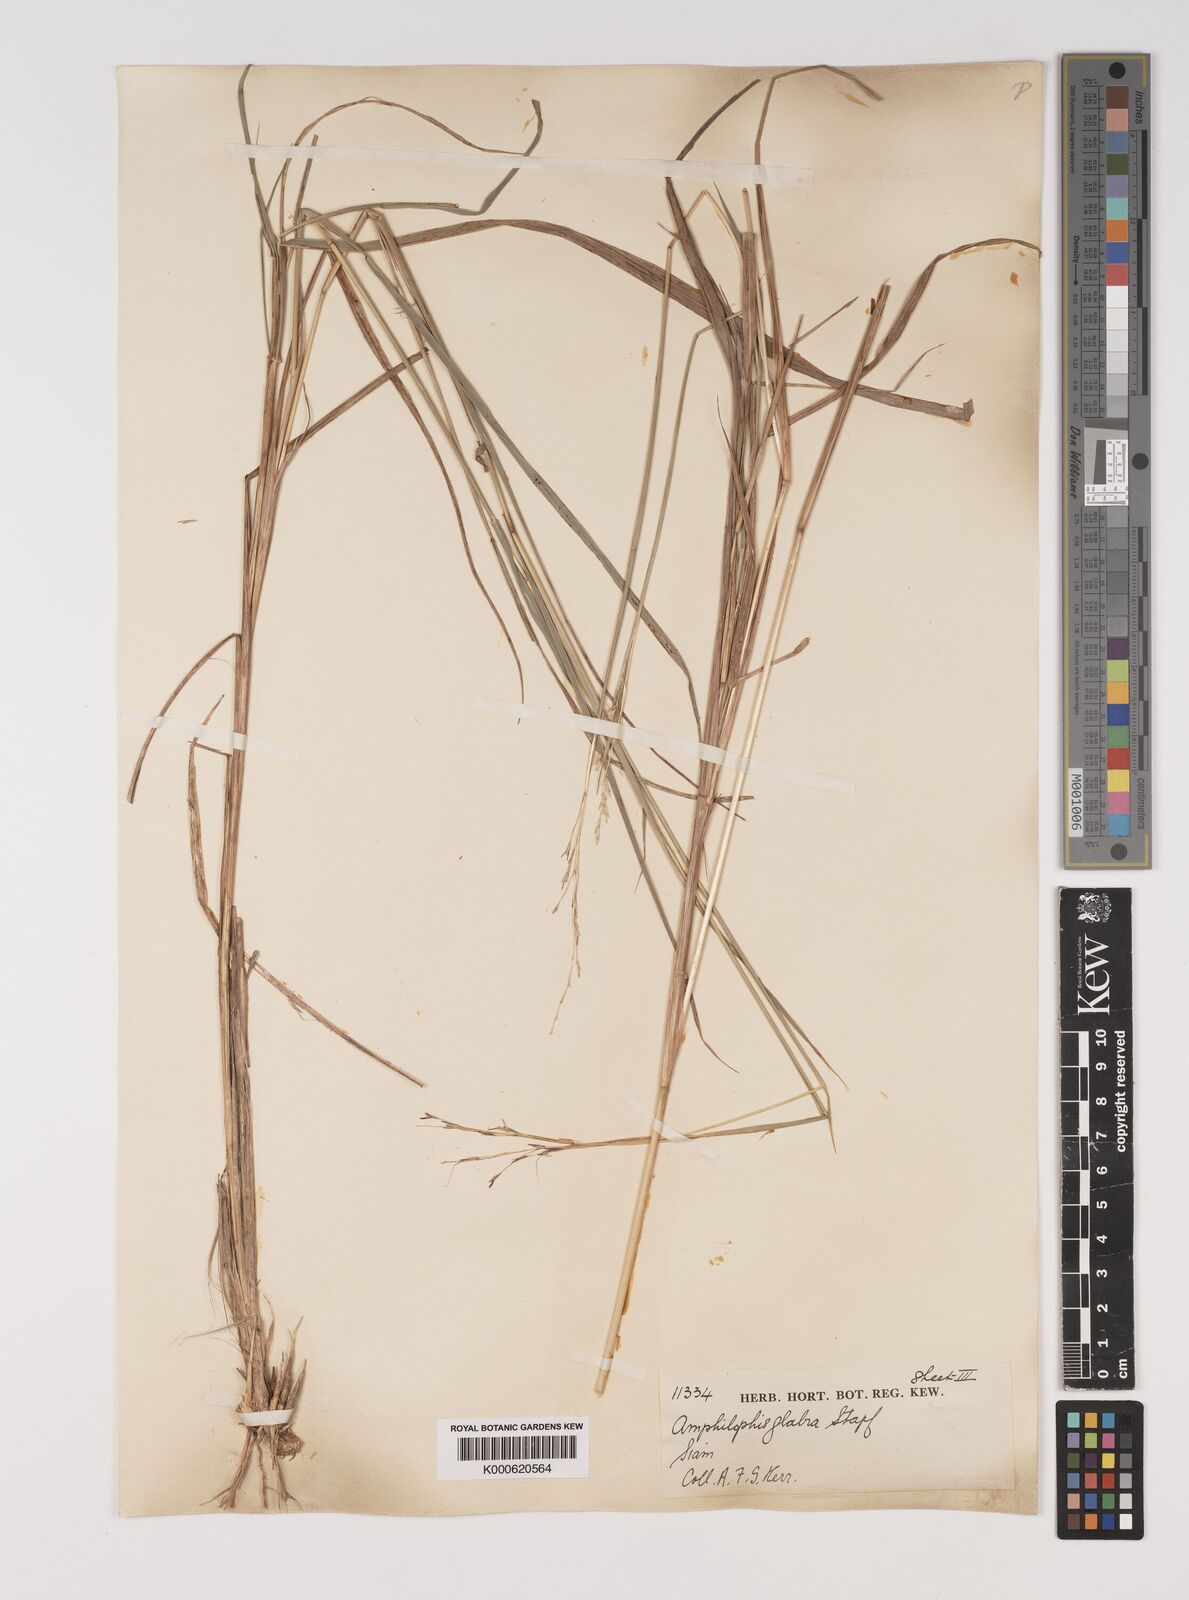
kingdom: Plantae
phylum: Tracheophyta
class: Liliopsida
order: Poales
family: Poaceae
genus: Bothriochloa
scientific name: Bothriochloa bladhii
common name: Caucasian bluestem
